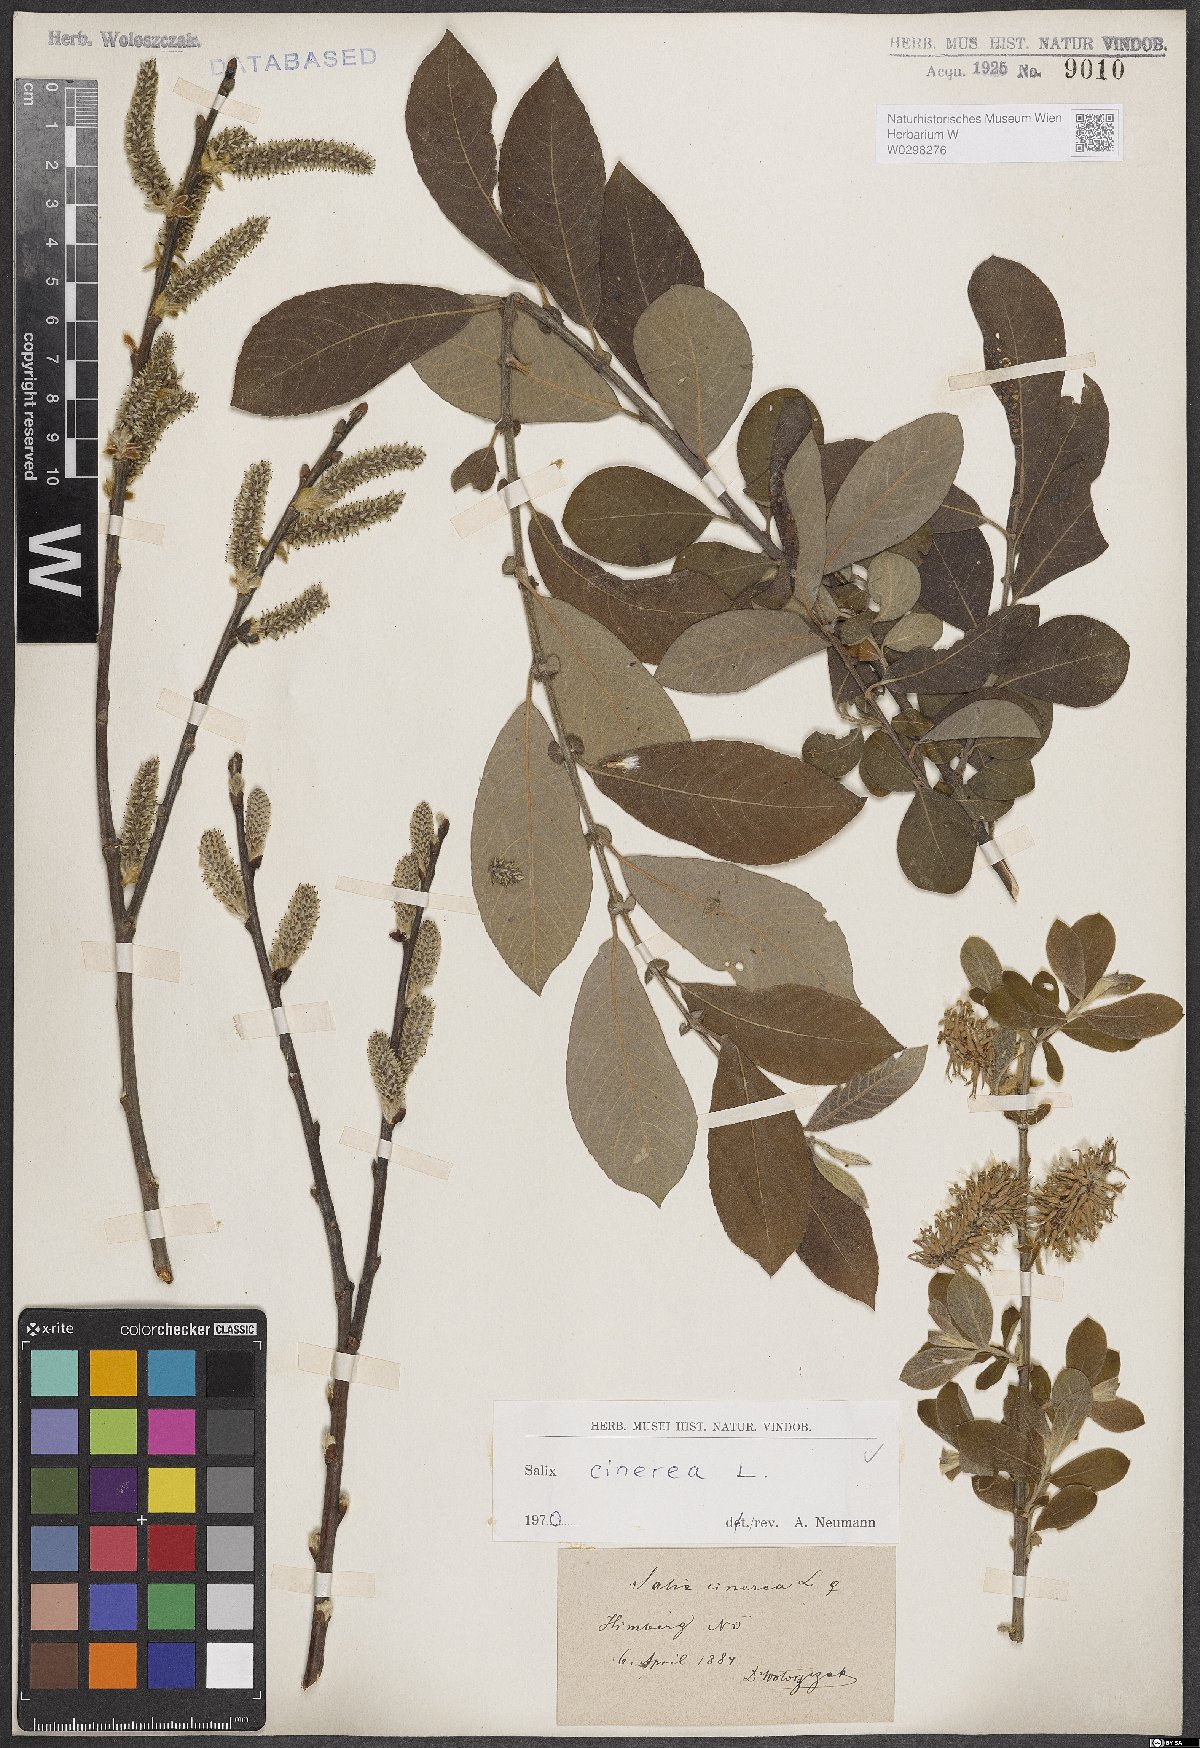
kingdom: Plantae
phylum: Tracheophyta
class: Magnoliopsida
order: Malpighiales
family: Salicaceae
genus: Salix
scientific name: Salix cinerea
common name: Common sallow
